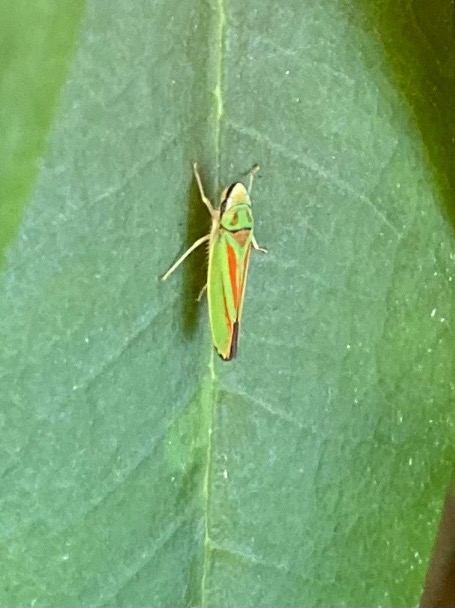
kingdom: Animalia
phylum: Arthropoda
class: Insecta
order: Hemiptera
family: Cicadellidae
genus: Graphocephala
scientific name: Graphocephala fennahi
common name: Rododendroncikade
